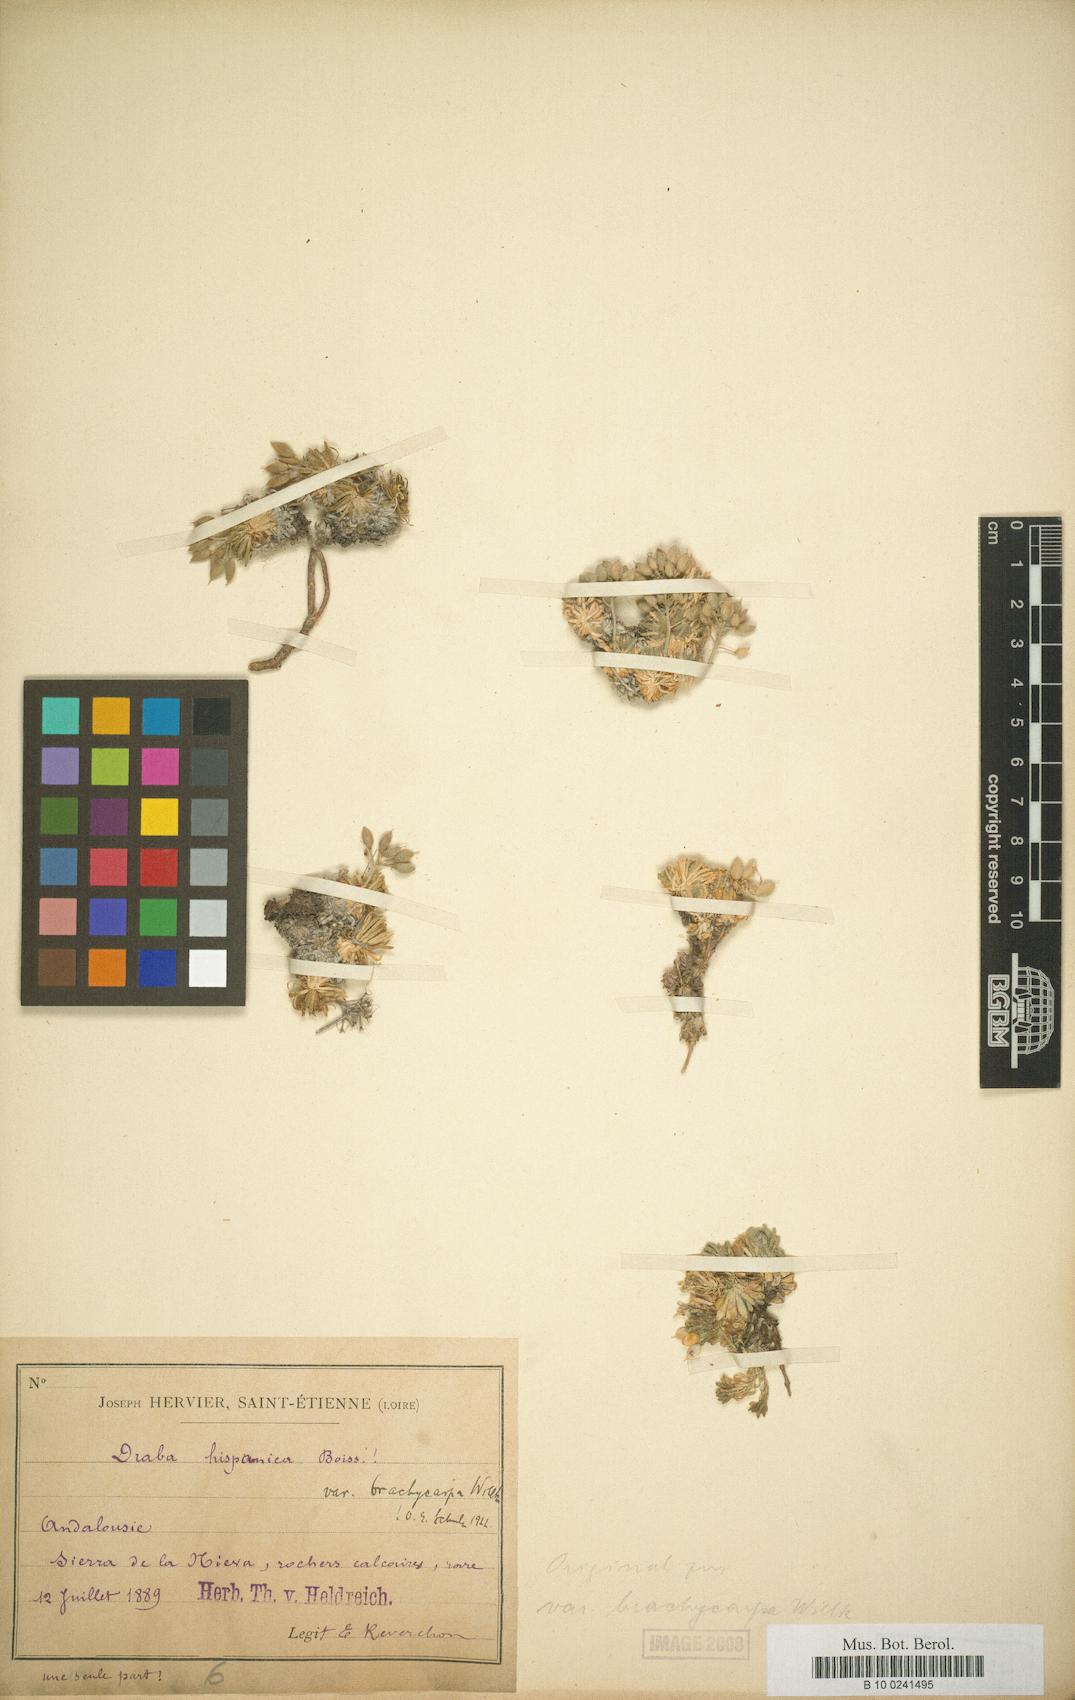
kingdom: Plantae
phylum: Tracheophyta
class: Magnoliopsida
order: Brassicales
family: Brassicaceae
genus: Draba
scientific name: Draba hispanica
